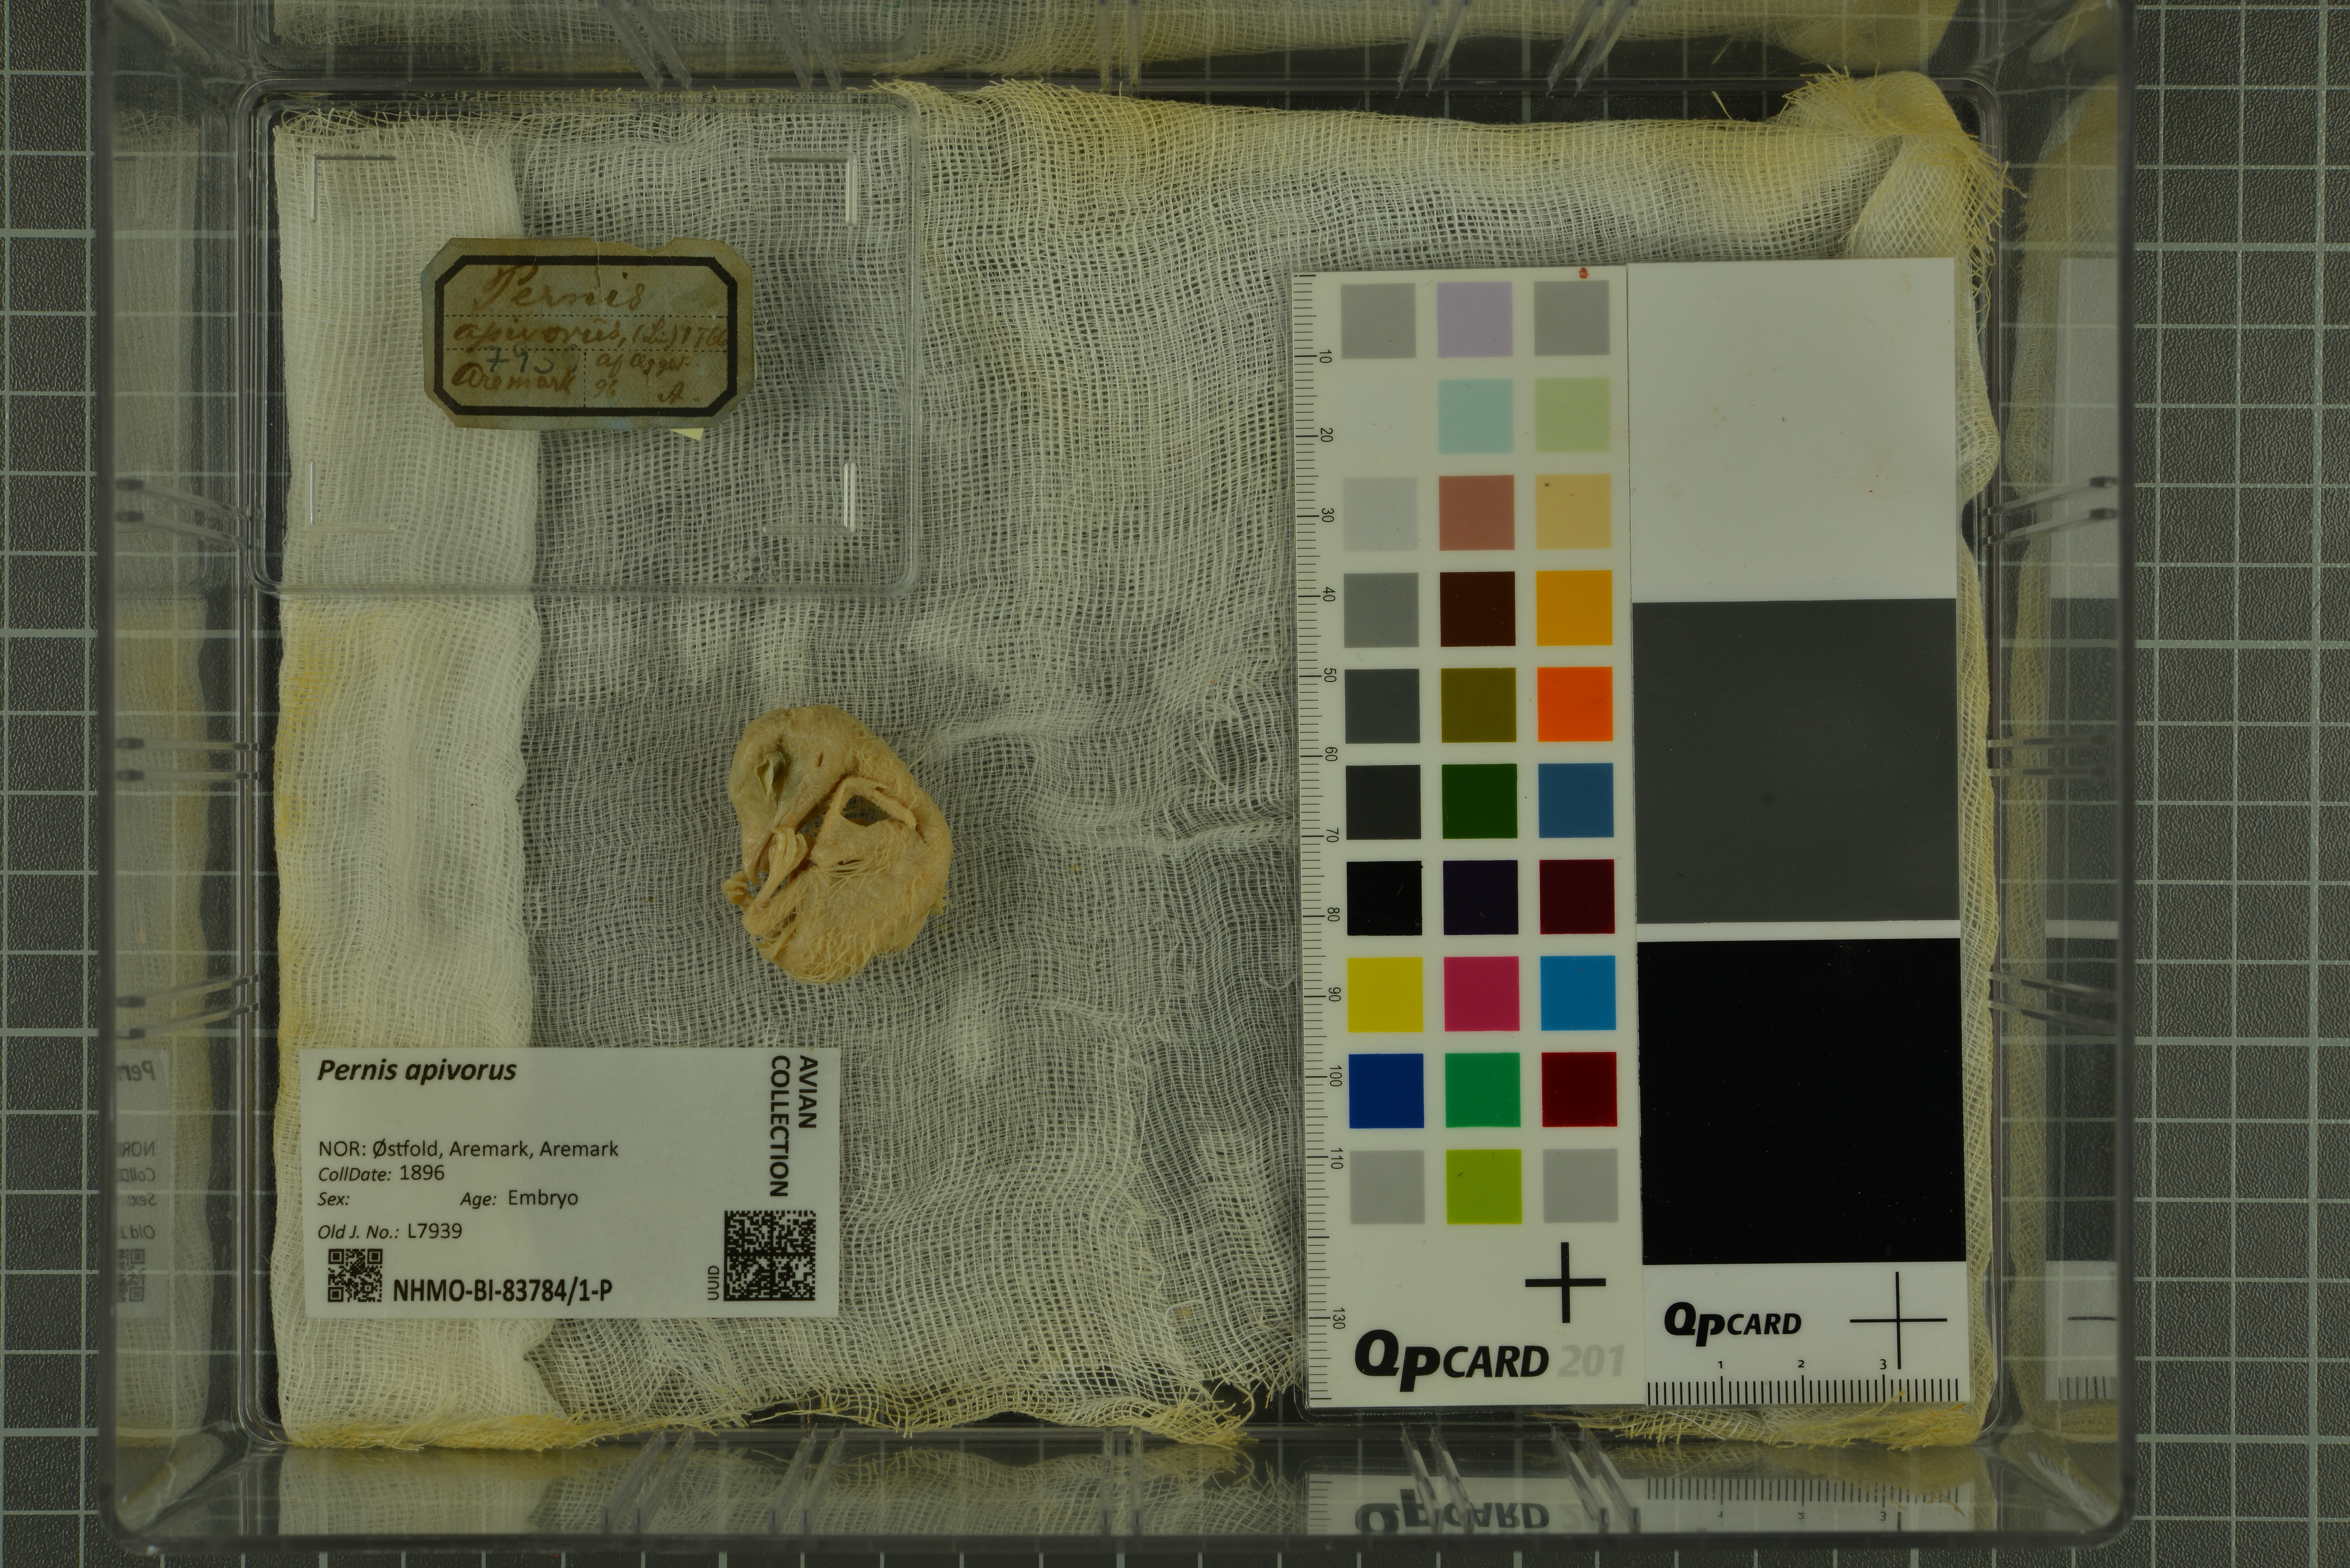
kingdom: Animalia
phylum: Chordata
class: Aves
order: Accipitriformes
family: Accipitridae
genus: Pernis
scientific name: Pernis apivorus
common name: European honey buzzard
